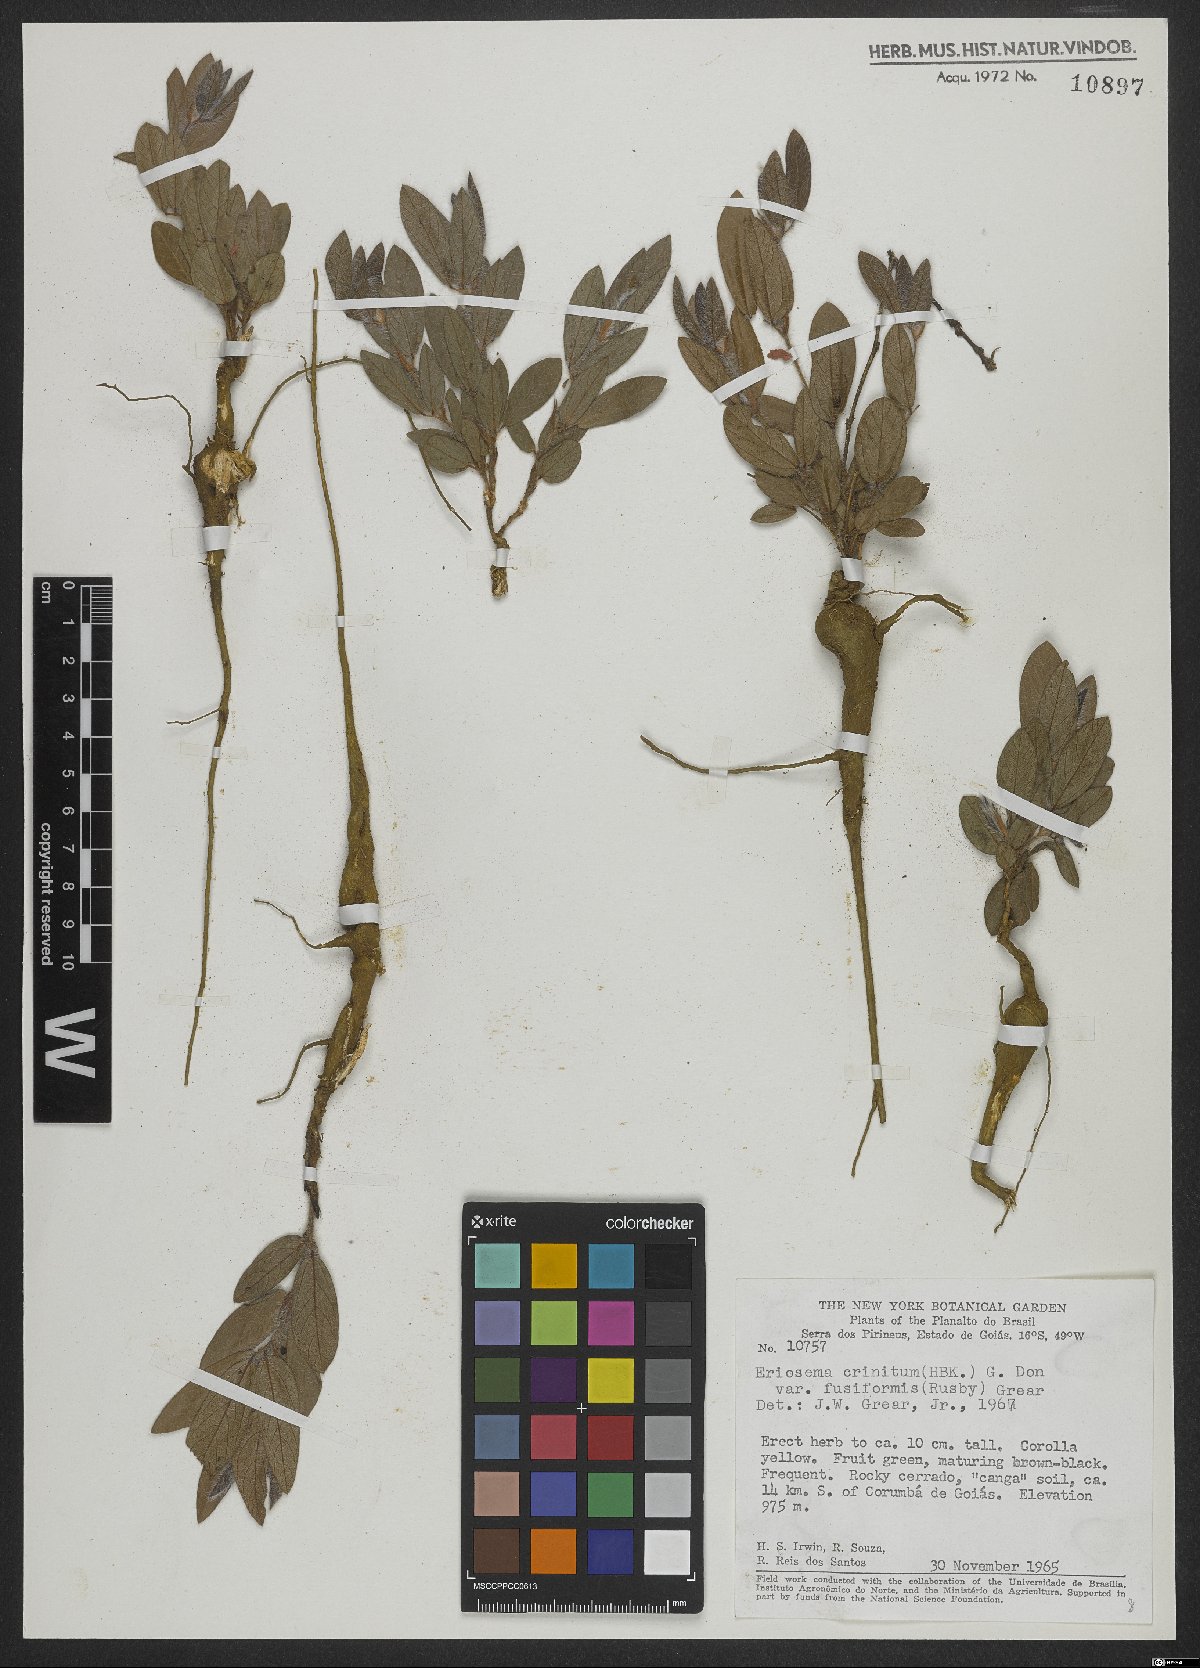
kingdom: Plantae
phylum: Tracheophyta
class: Magnoliopsida
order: Fabales
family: Fabaceae
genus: Eriosema
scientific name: Eriosema crinitum
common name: Sand pea
